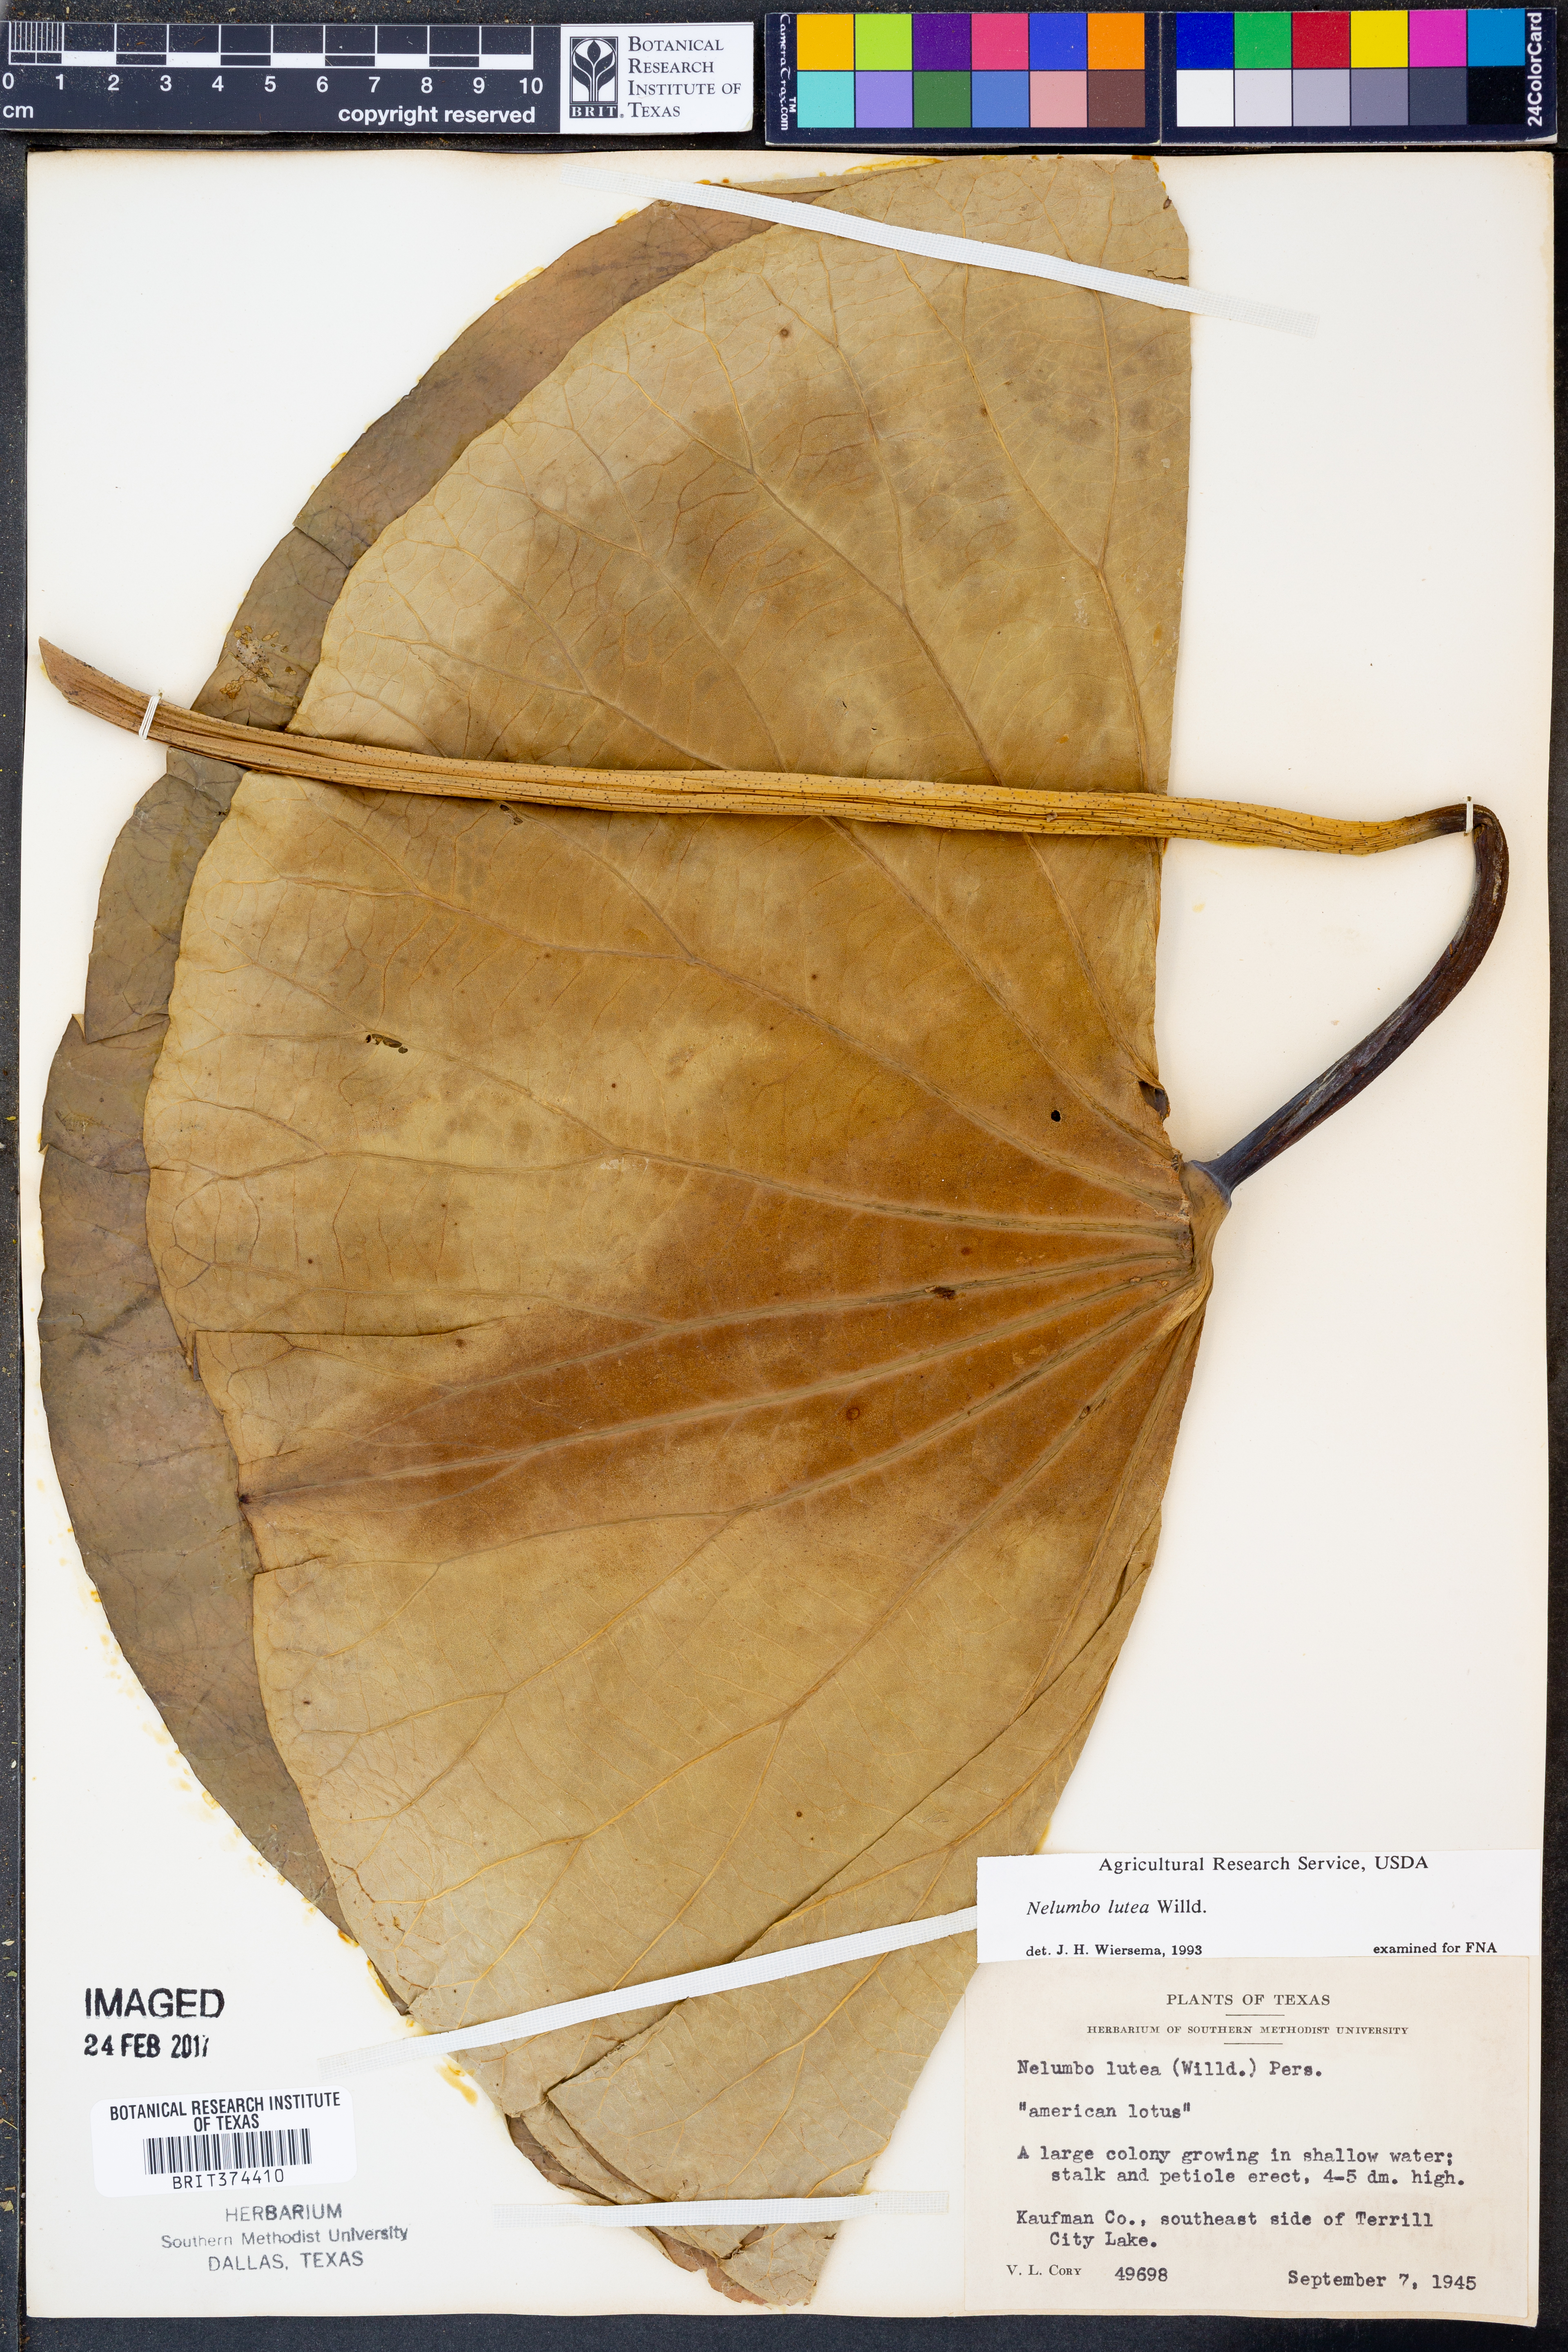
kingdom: Plantae
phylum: Tracheophyta
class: Magnoliopsida
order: Proteales
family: Nelumbonaceae
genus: Nelumbo
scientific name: Nelumbo lutea
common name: American lotus
